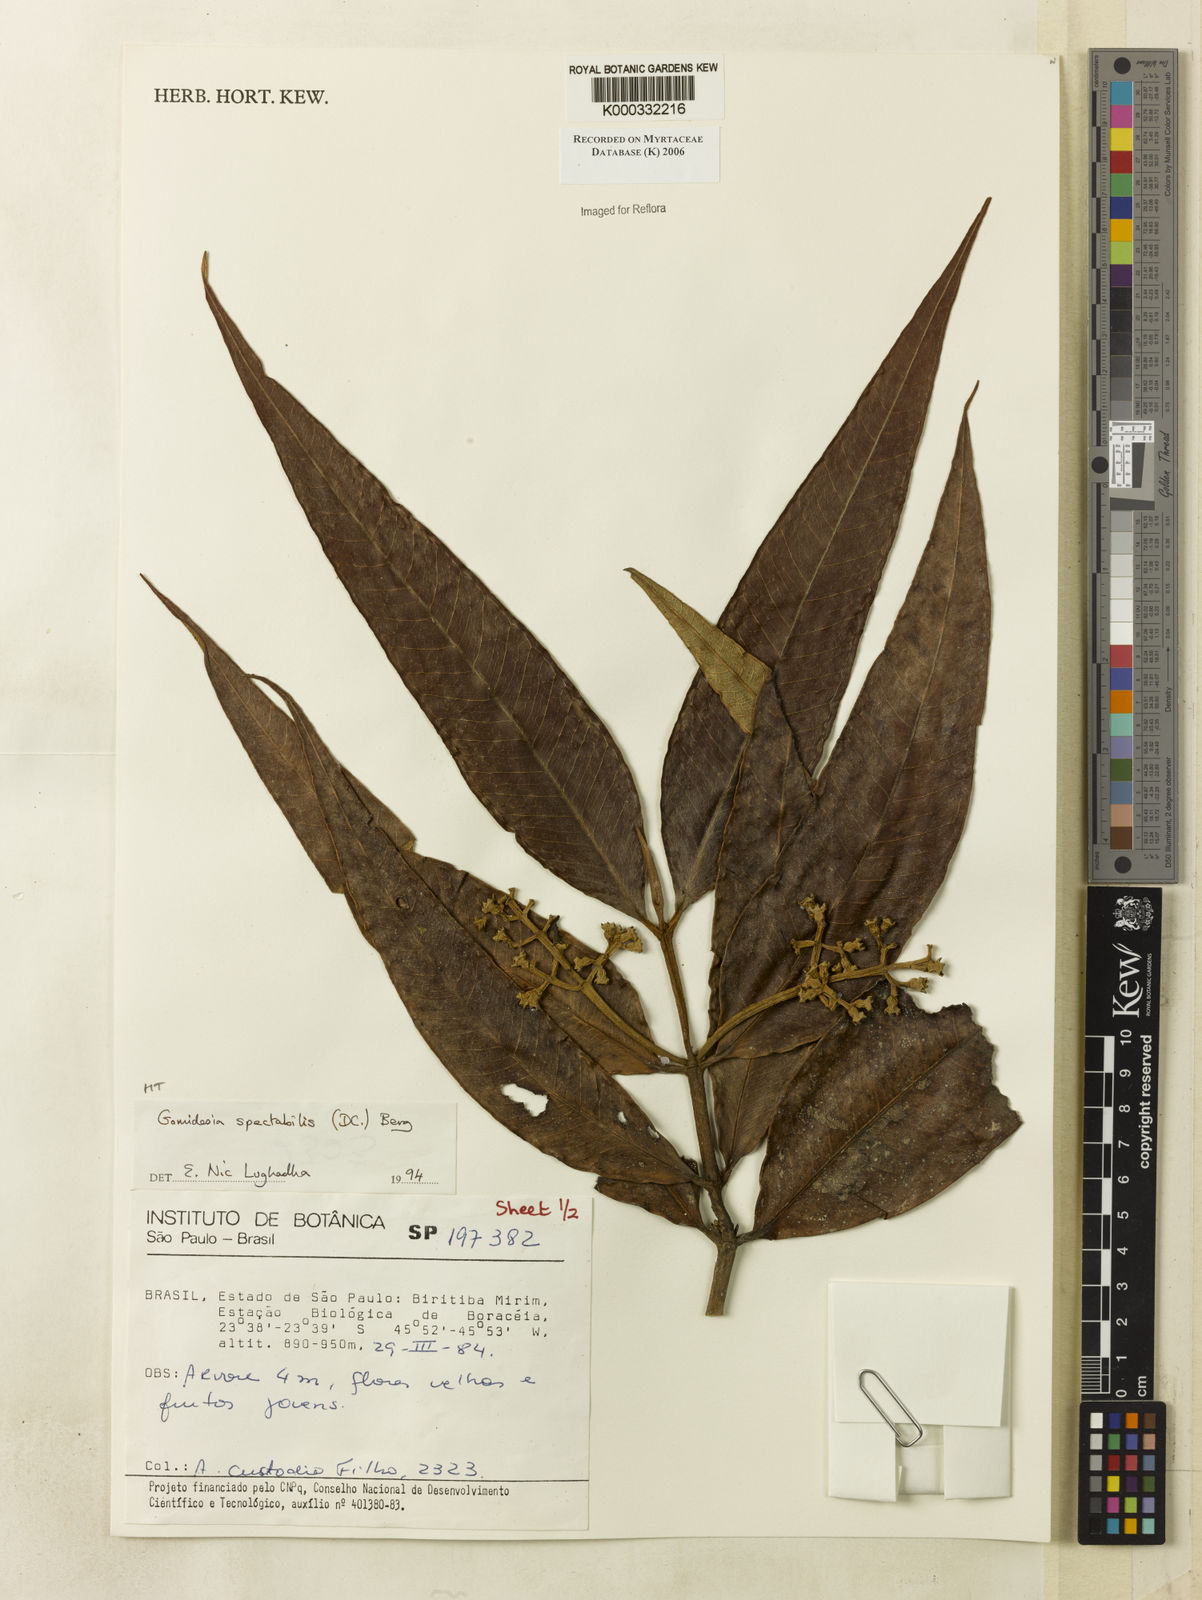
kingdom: Plantae
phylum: Tracheophyta
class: Magnoliopsida
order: Myrtales
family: Myrtaceae
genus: Myrcia
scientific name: Myrcia spectabilis
